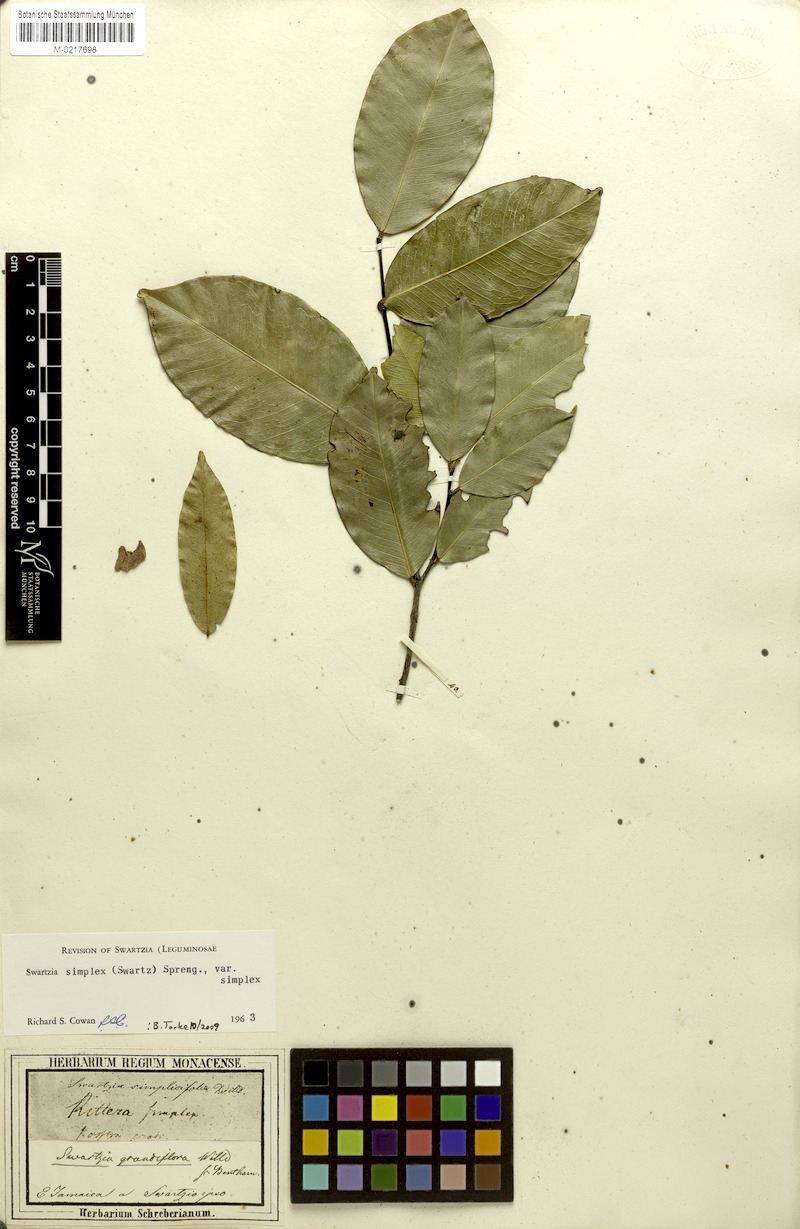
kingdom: Plantae
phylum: Tracheophyta
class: Magnoliopsida
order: Fabales
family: Fabaceae
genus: Swartzia
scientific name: Swartzia simplex
